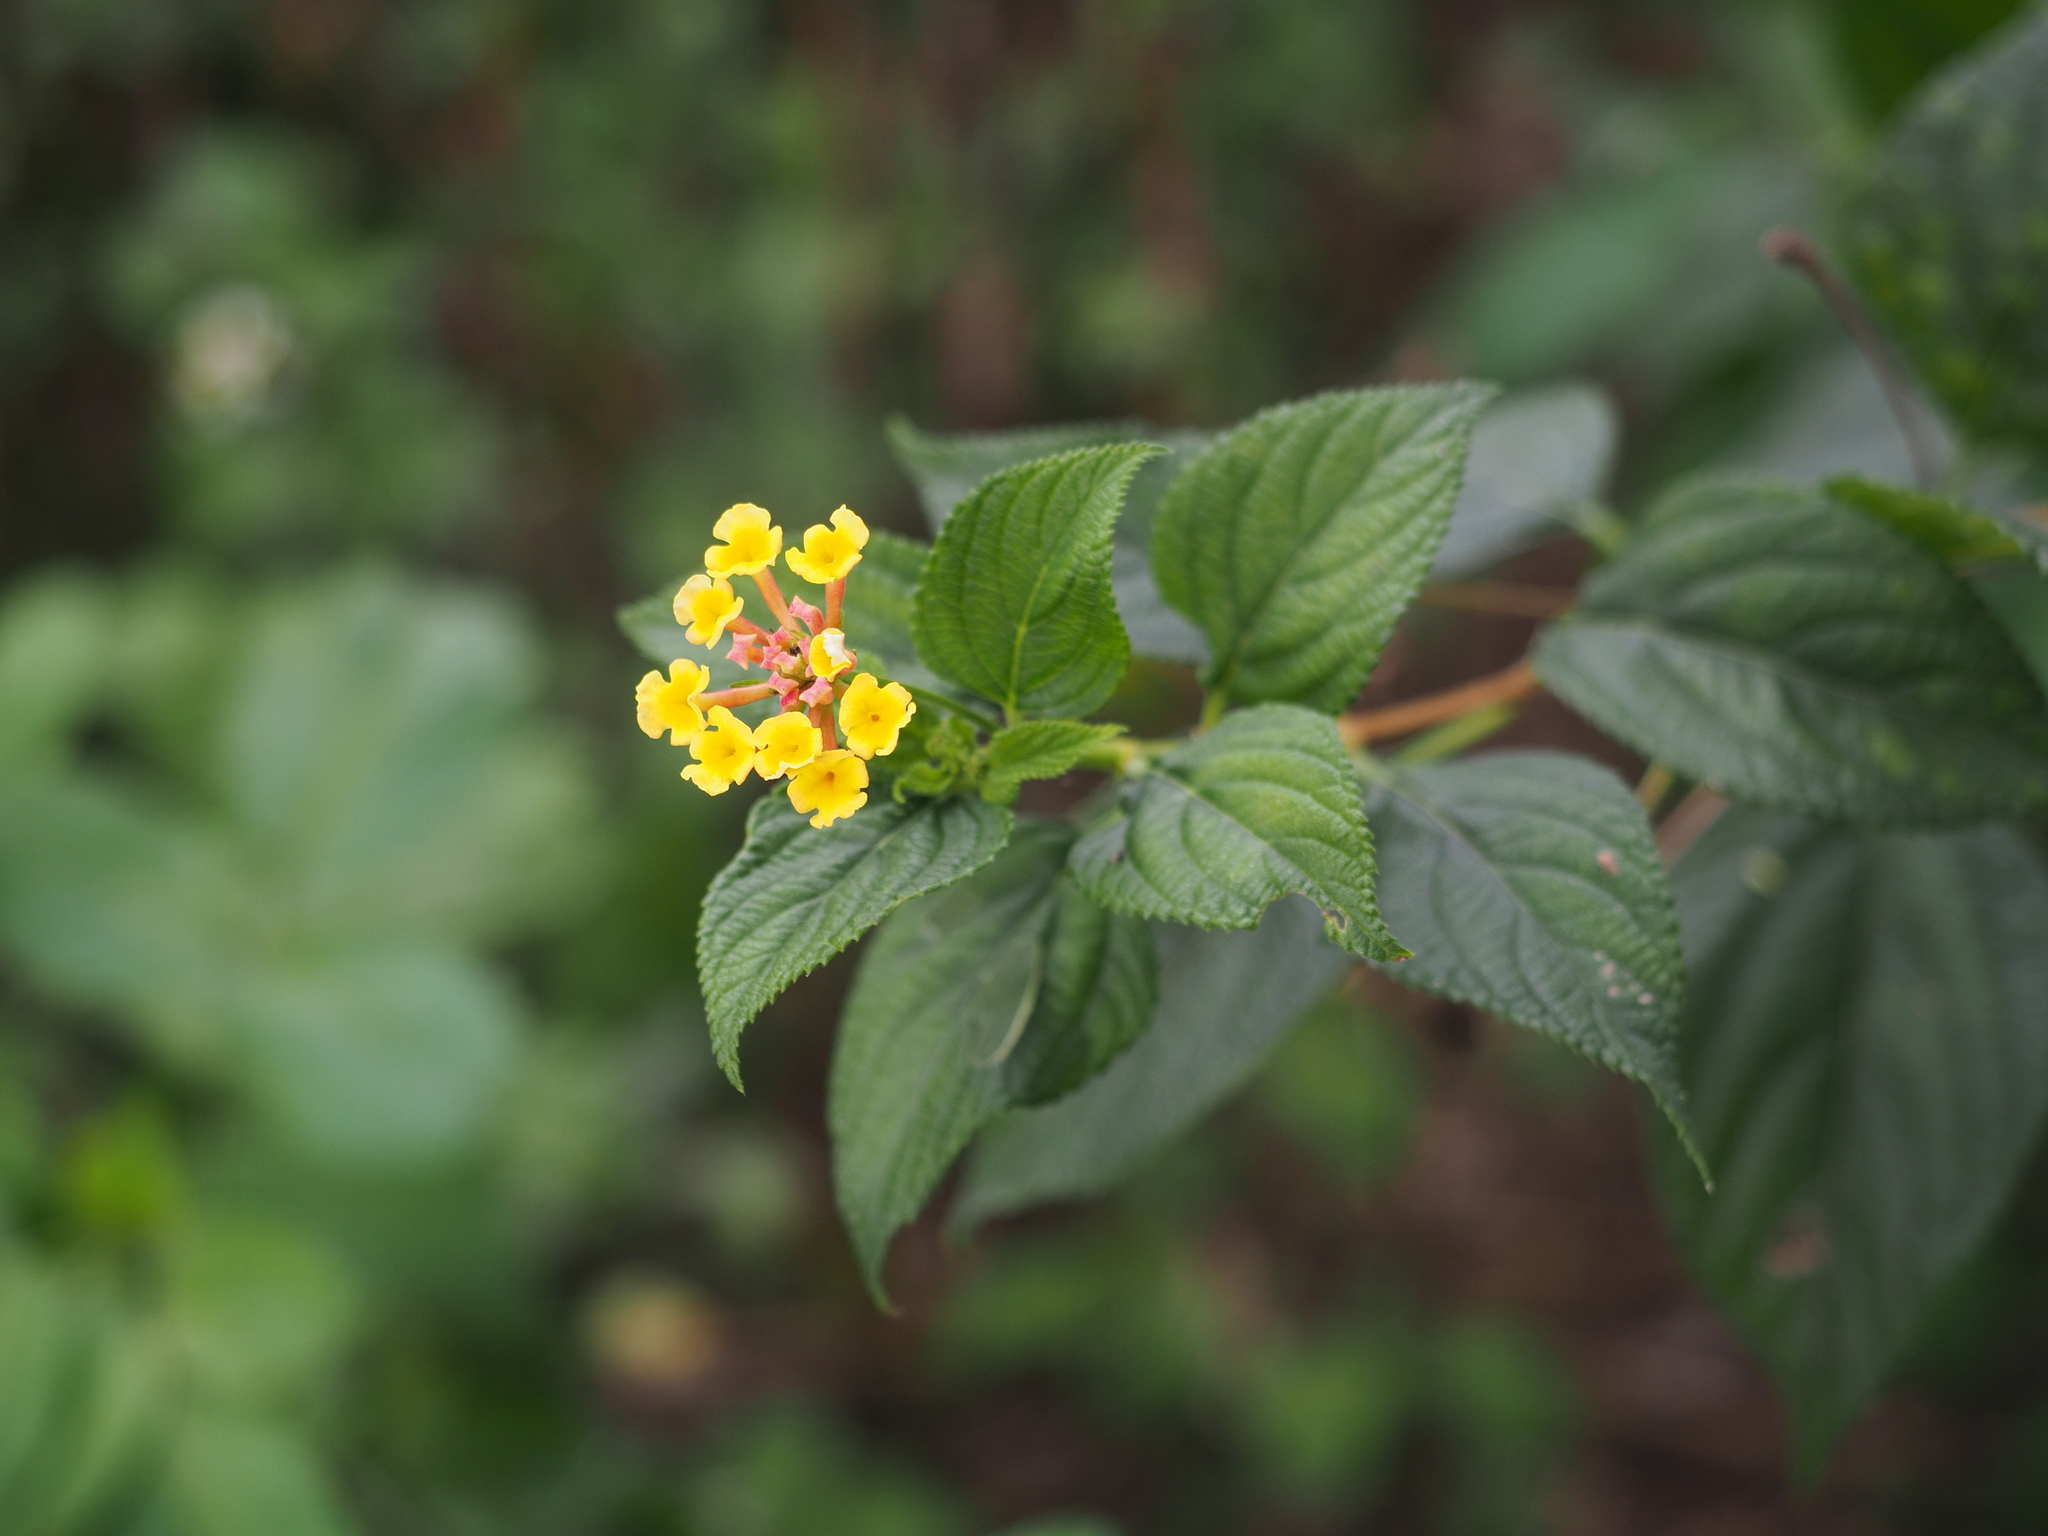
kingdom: Plantae
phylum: Tracheophyta
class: Magnoliopsida
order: Lamiales
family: Verbenaceae
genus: Lantana
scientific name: Lantana camara
